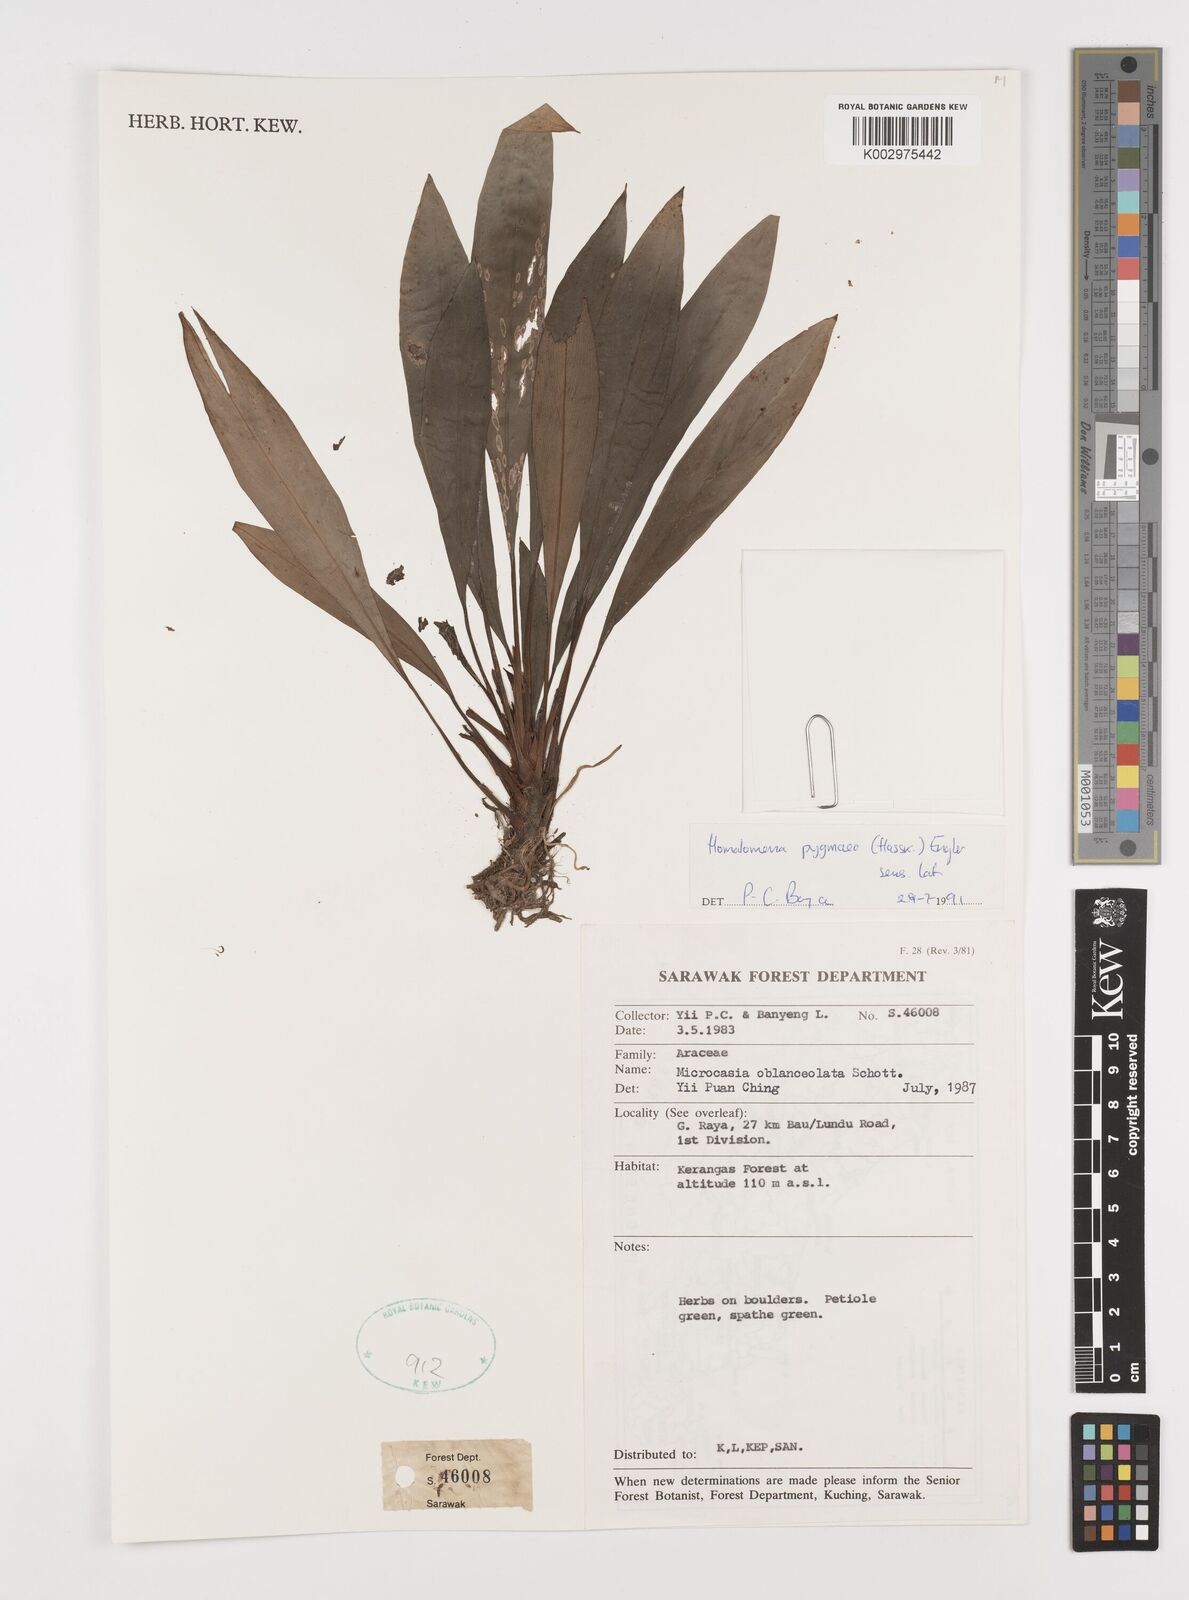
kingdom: Plantae
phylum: Tracheophyta
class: Liliopsida
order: Alismatales
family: Araceae
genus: Homalomena
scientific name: Homalomena humilis
